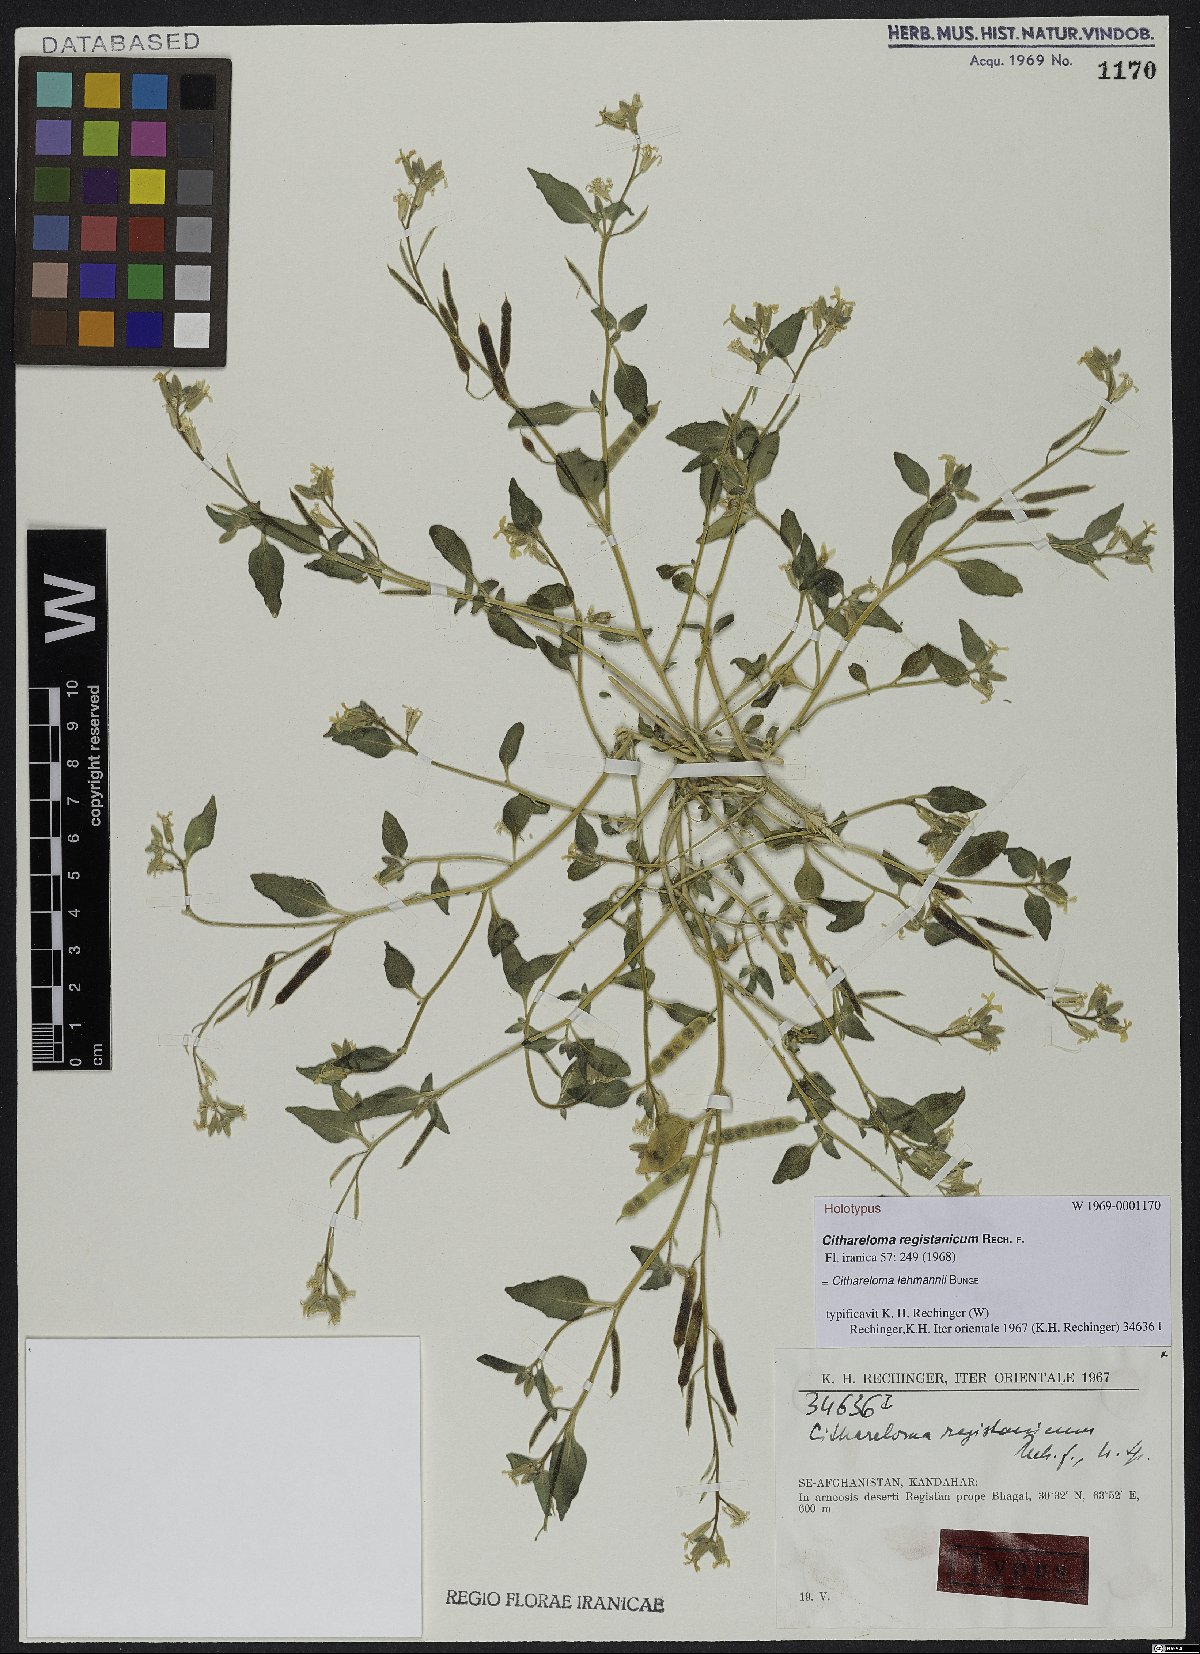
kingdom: Plantae
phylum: Tracheophyta
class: Magnoliopsida
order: Brassicales
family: Brassicaceae
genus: Cithareloma
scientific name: Cithareloma lehmannii
